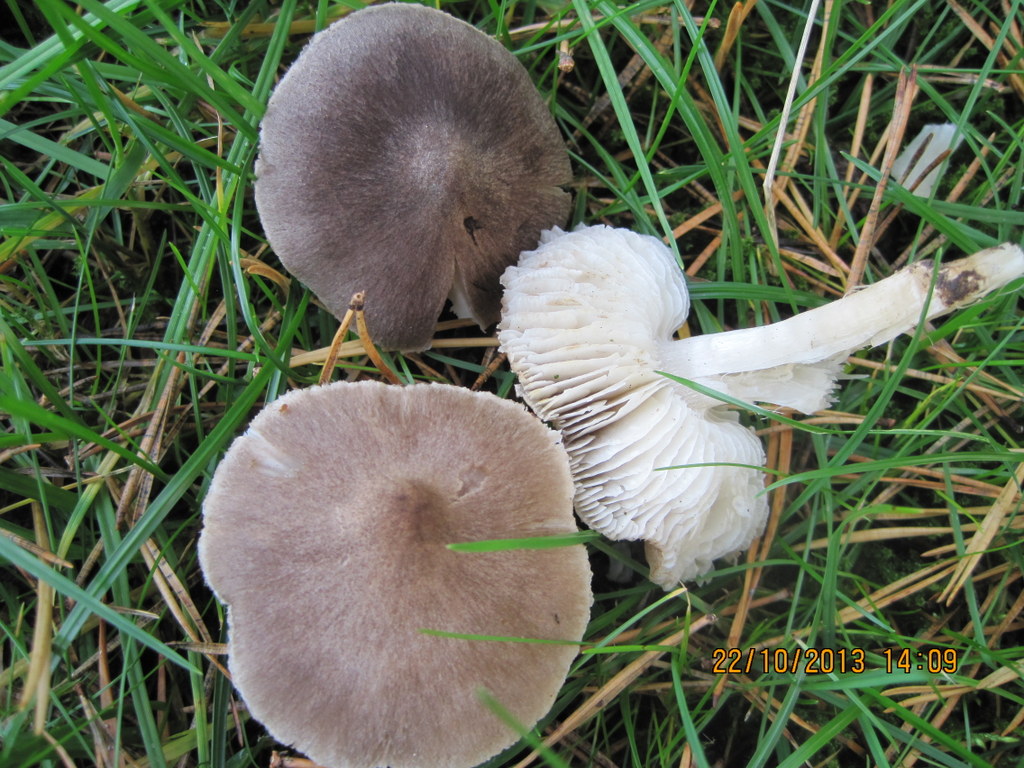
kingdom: Fungi
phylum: Basidiomycota
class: Agaricomycetes
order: Agaricales
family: Tricholomataceae
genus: Tricholoma
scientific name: Tricholoma terreum
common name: jordfarvet ridderhat
